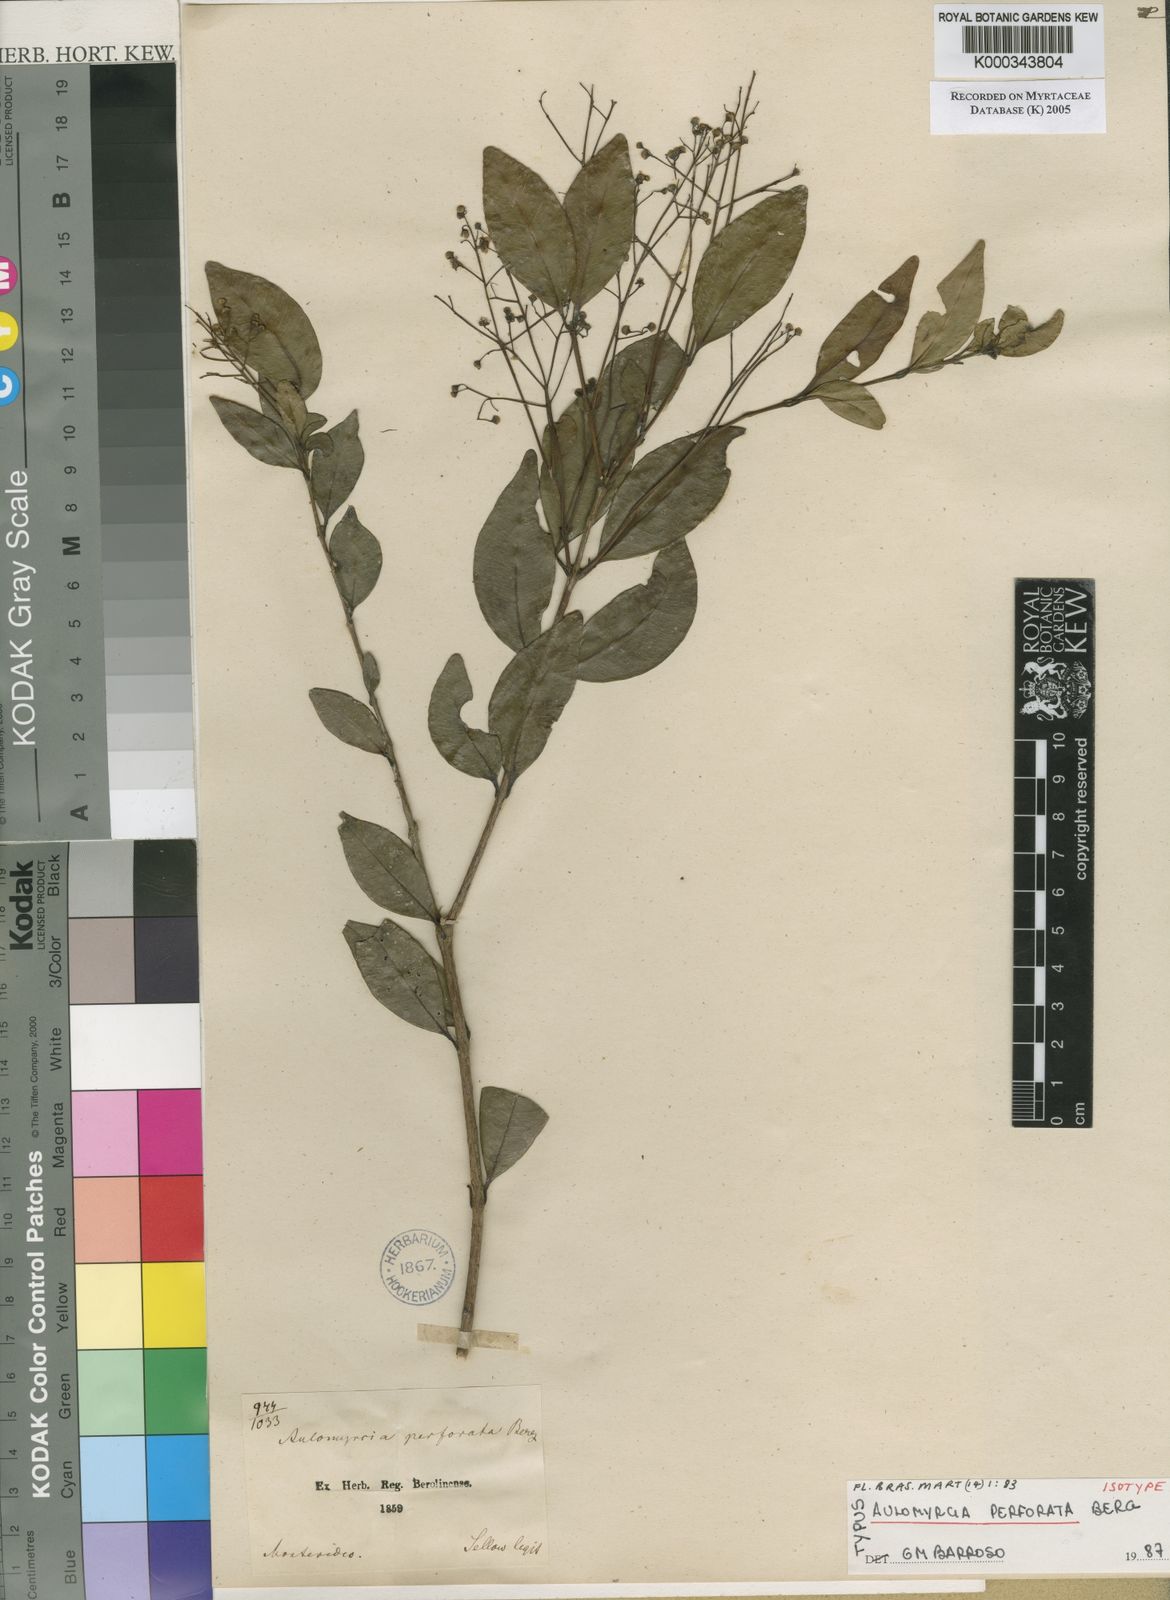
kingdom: Plantae
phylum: Tracheophyta
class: Magnoliopsida
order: Myrtales
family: Myrtaceae
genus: Myrcia
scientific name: Myrcia multiflora
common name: Pedra hume
